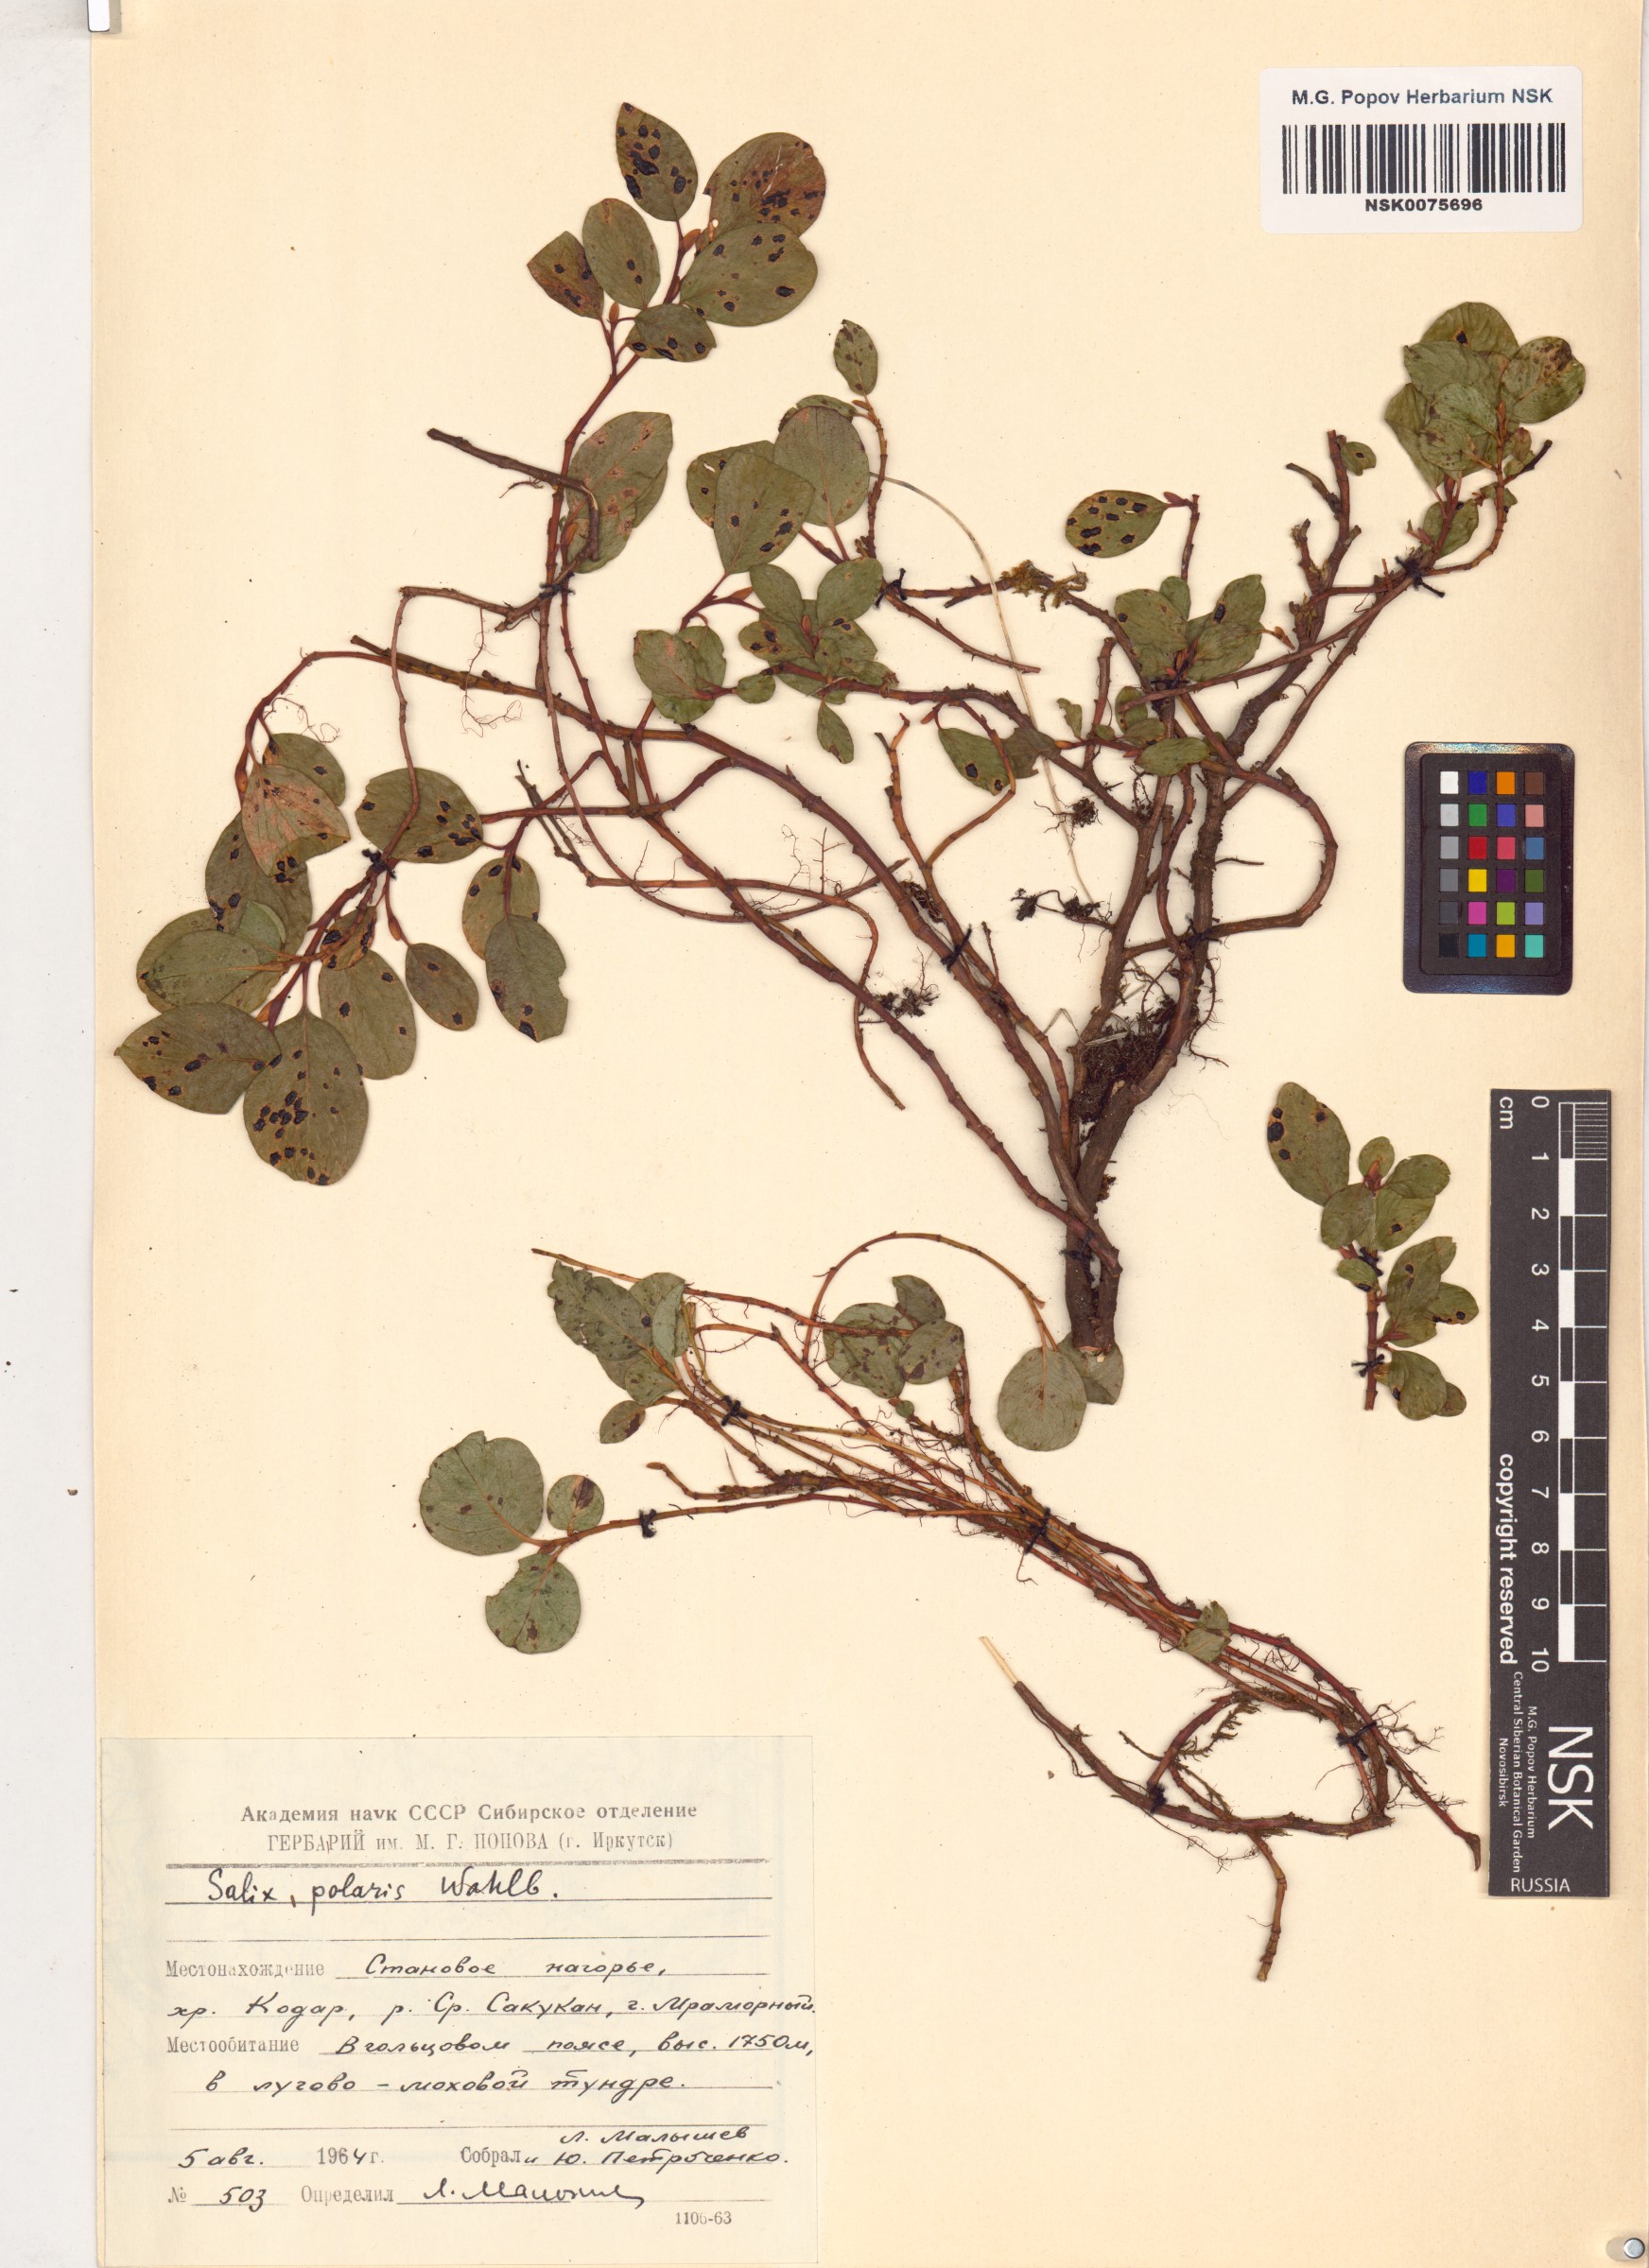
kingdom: Plantae
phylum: Tracheophyta
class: Magnoliopsida
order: Malpighiales
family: Salicaceae
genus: Salix
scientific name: Salix polaris
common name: Polar willow
